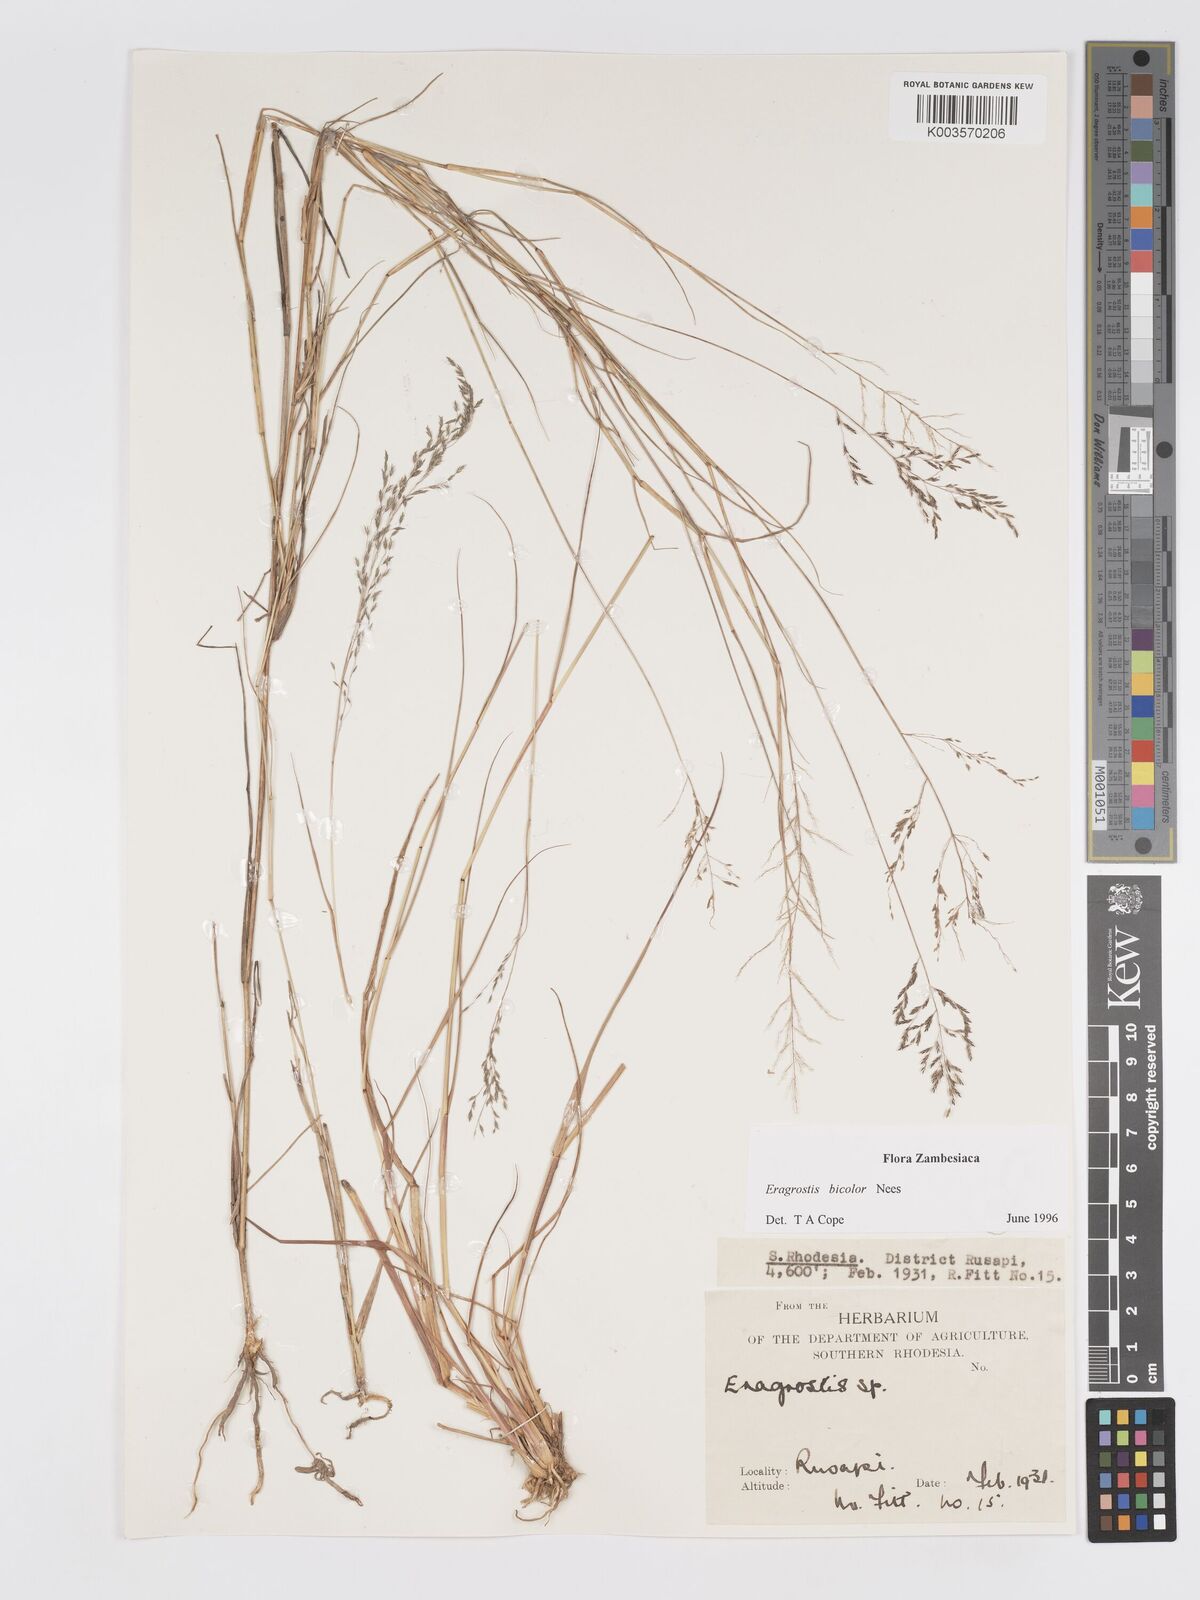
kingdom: Plantae
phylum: Tracheophyta
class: Liliopsida
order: Poales
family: Poaceae
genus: Eragrostis
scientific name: Eragrostis bicolor
